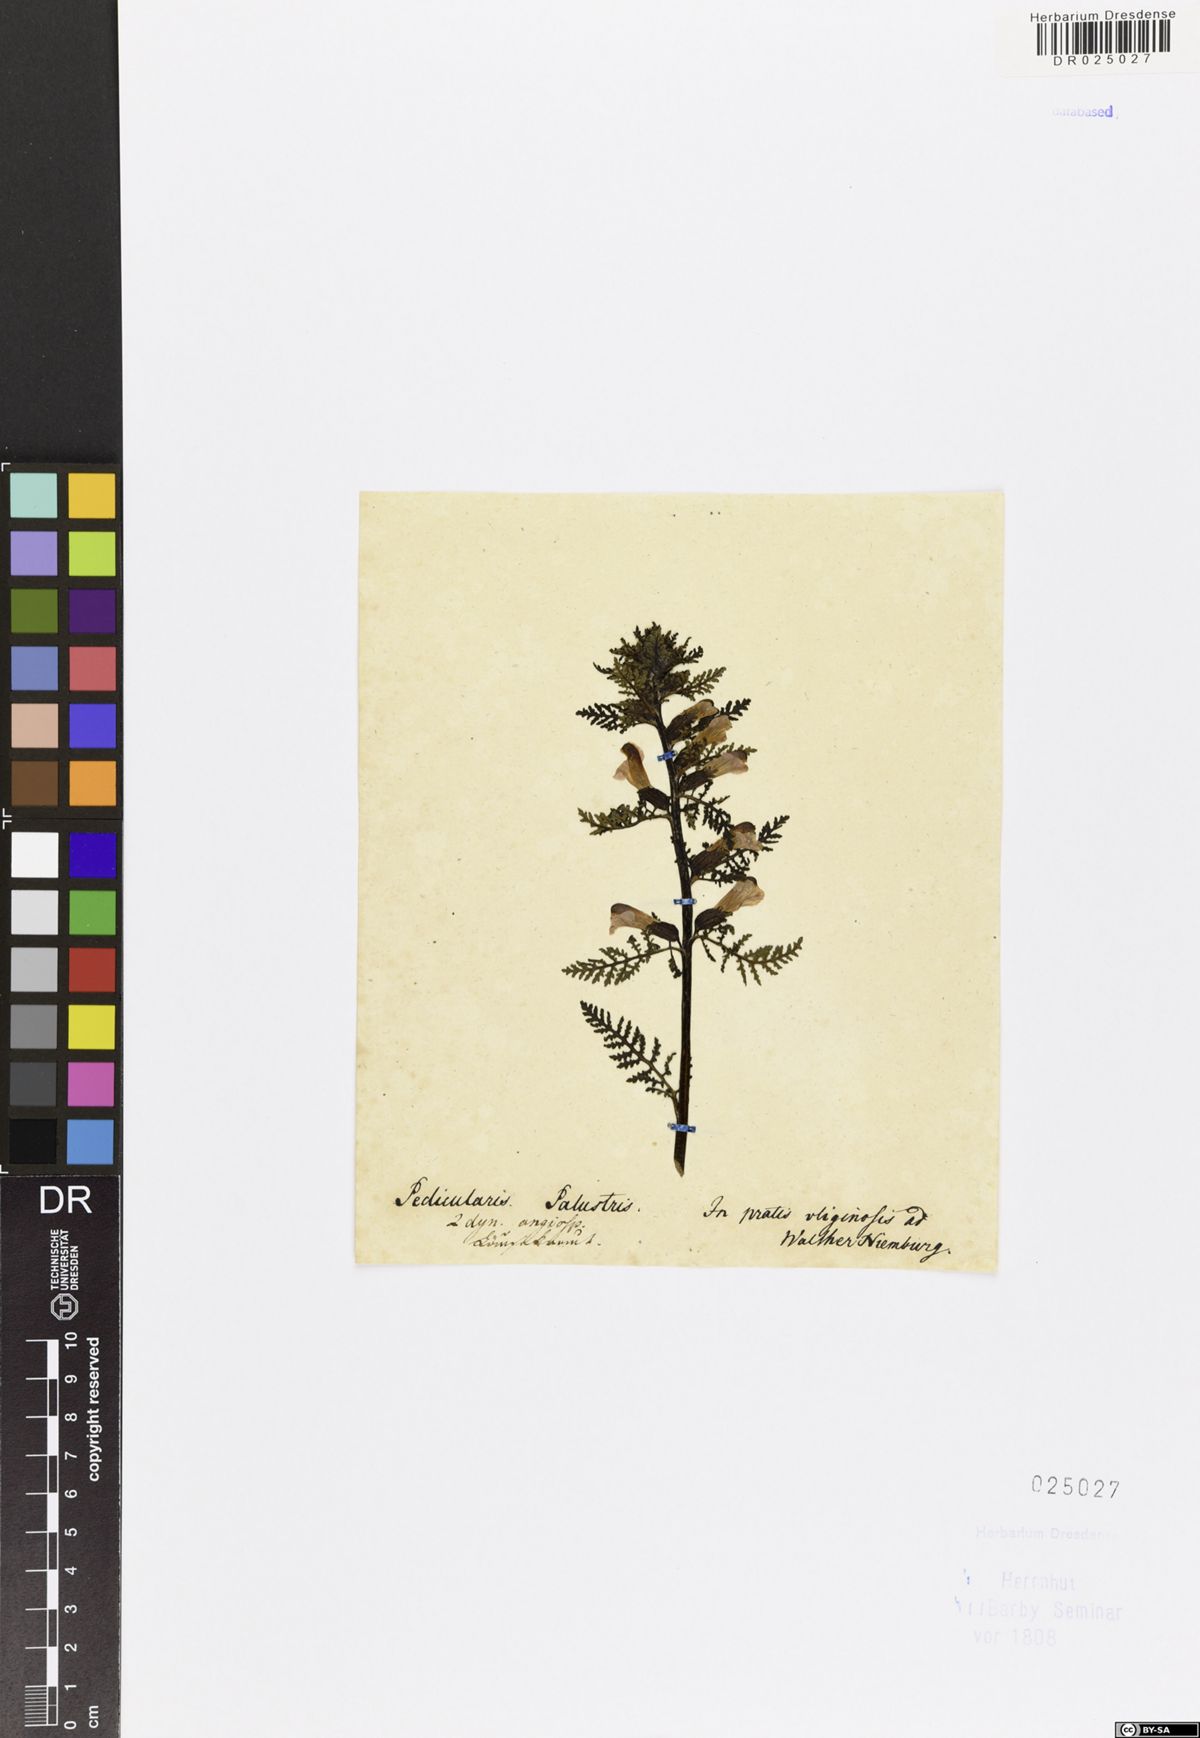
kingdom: Plantae
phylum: Tracheophyta
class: Magnoliopsida
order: Lamiales
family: Orobanchaceae
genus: Pedicularis
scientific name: Pedicularis palustris
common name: Marsh lousewort
